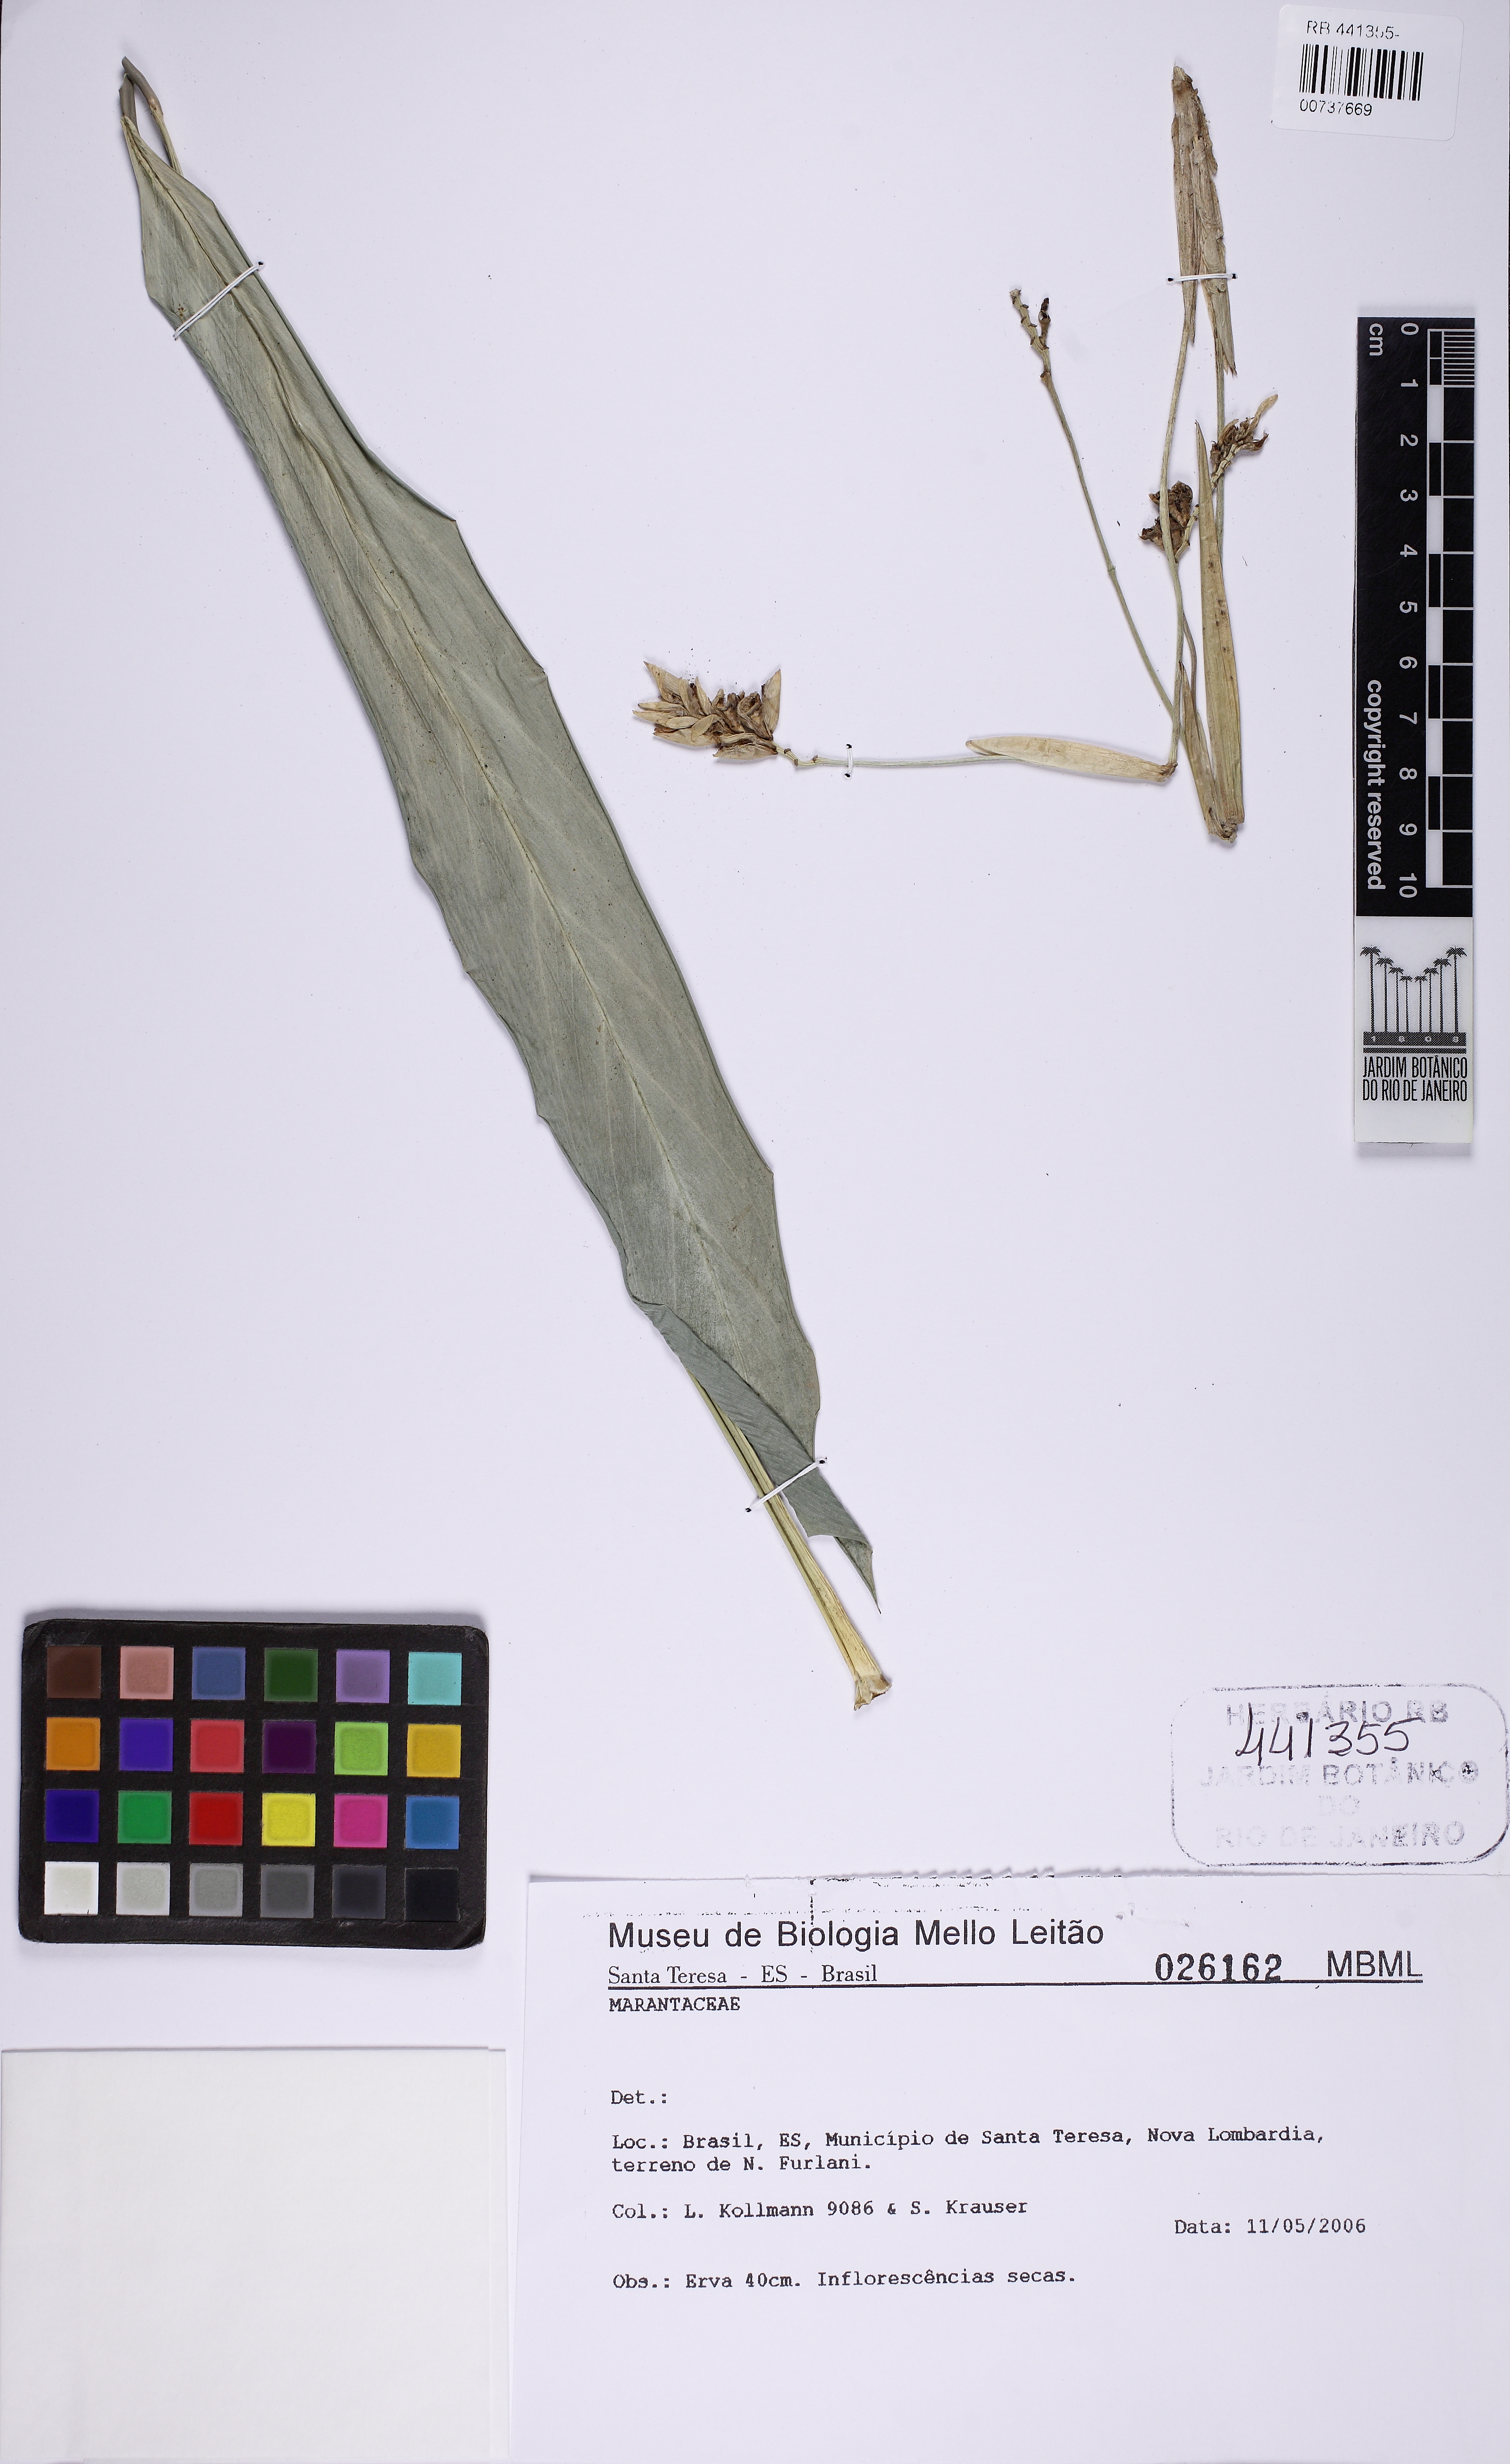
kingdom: Plantae
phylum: Tracheophyta
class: Liliopsida
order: Zingiberales
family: Marantaceae
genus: Saranthe
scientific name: Saranthe leptostachya
